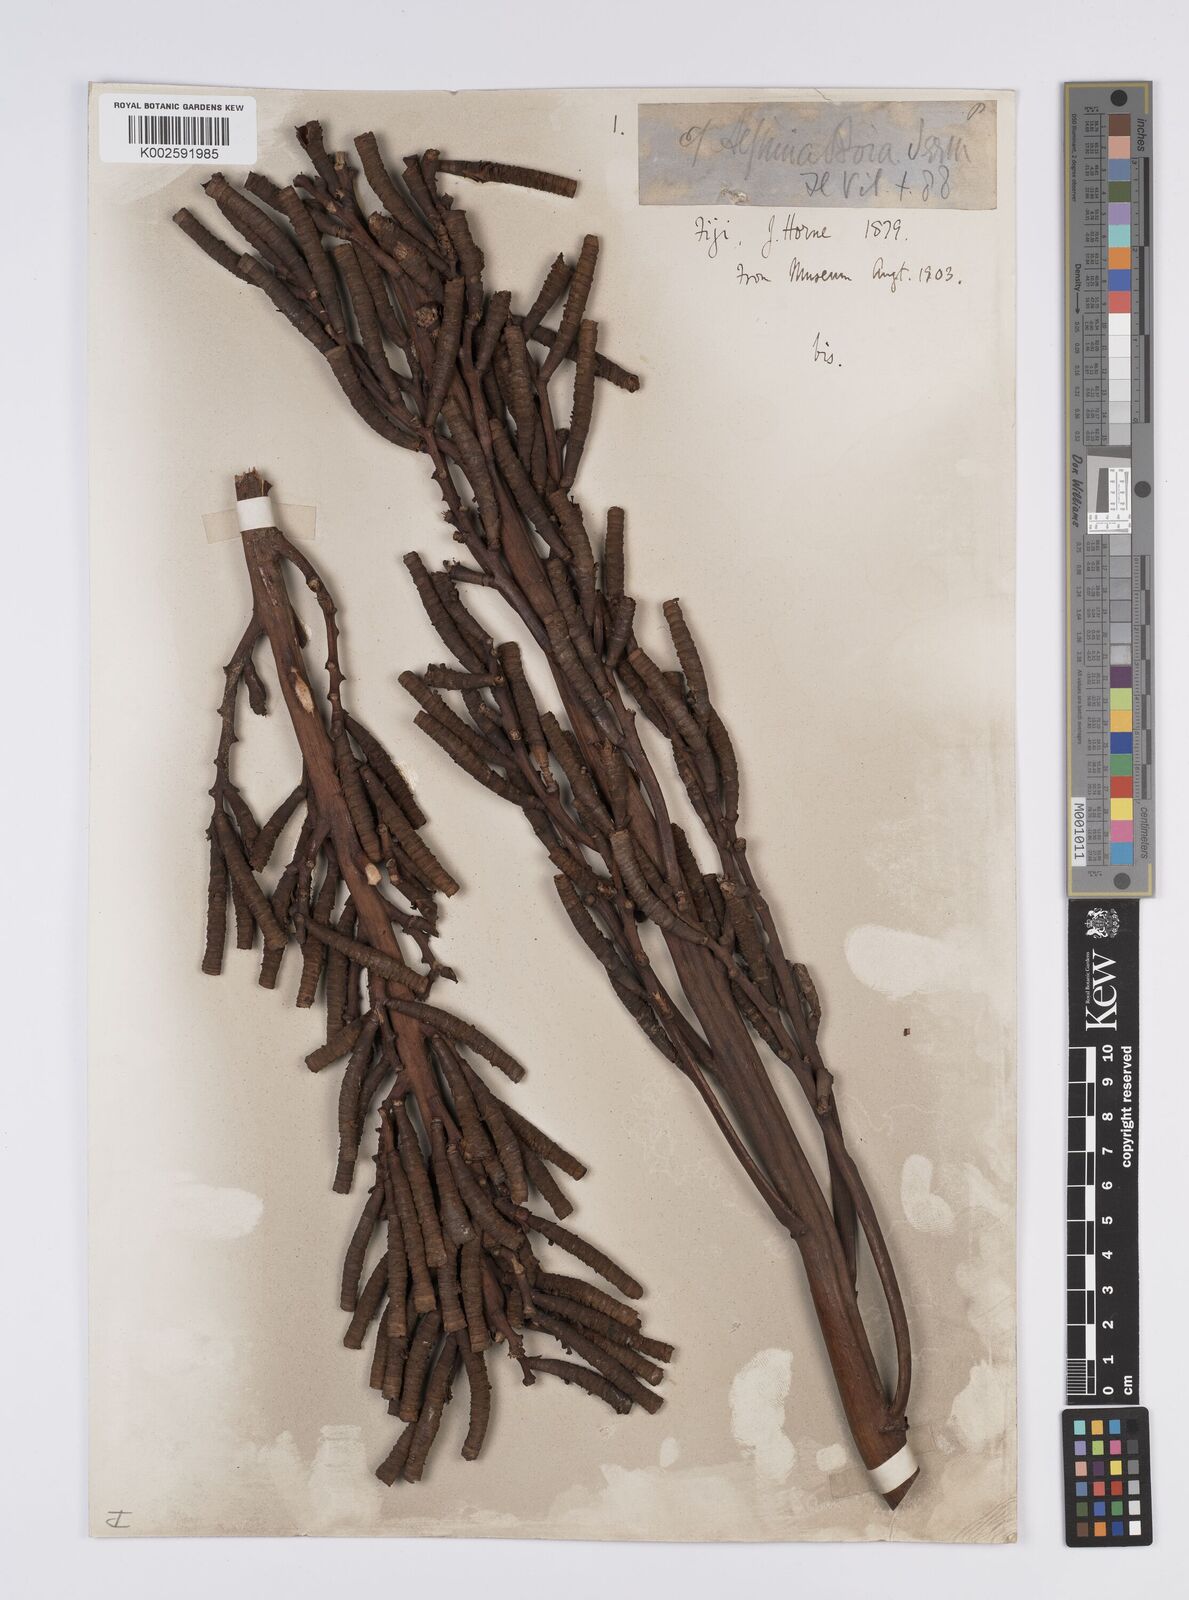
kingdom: Plantae
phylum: Tracheophyta
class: Liliopsida
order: Zingiberales
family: Zingiberaceae
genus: Alpinia
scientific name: Alpinia boia
